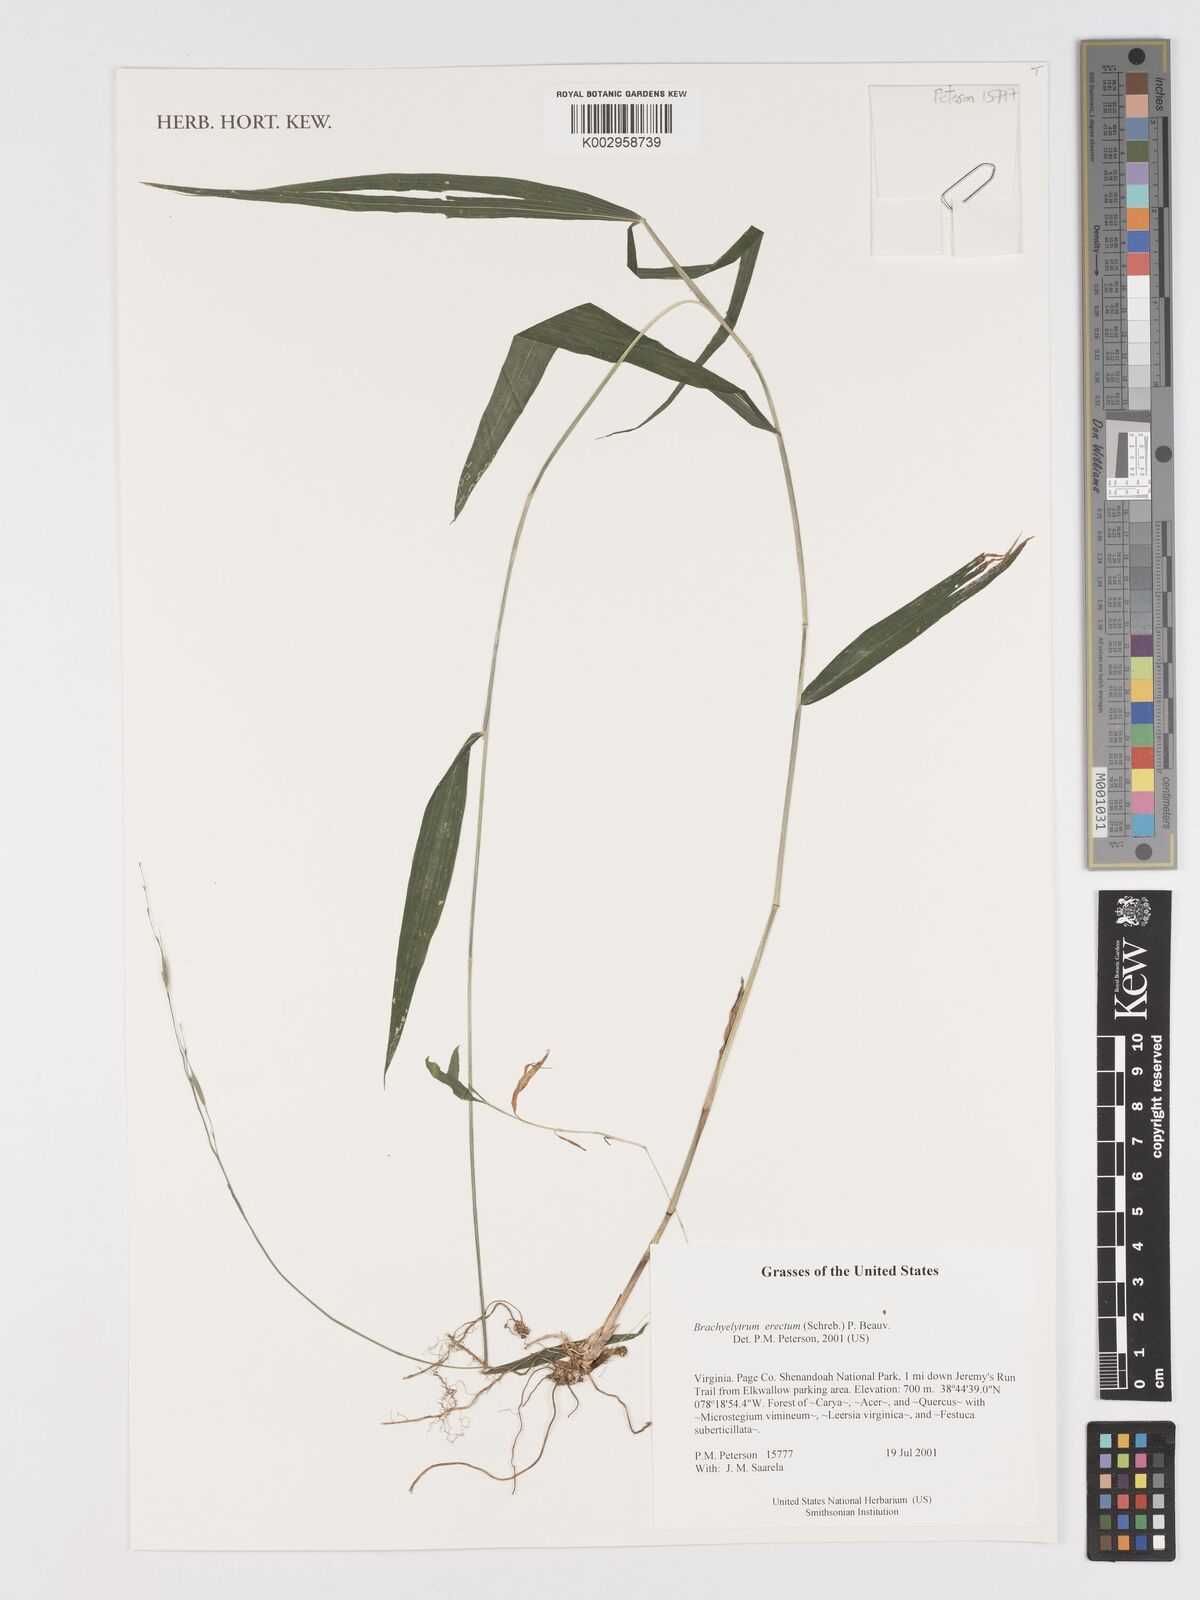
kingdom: Plantae
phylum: Tracheophyta
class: Liliopsida
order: Poales
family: Poaceae
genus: Brachyelytrum
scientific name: Brachyelytrum erectum
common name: Bearded shorthusk
